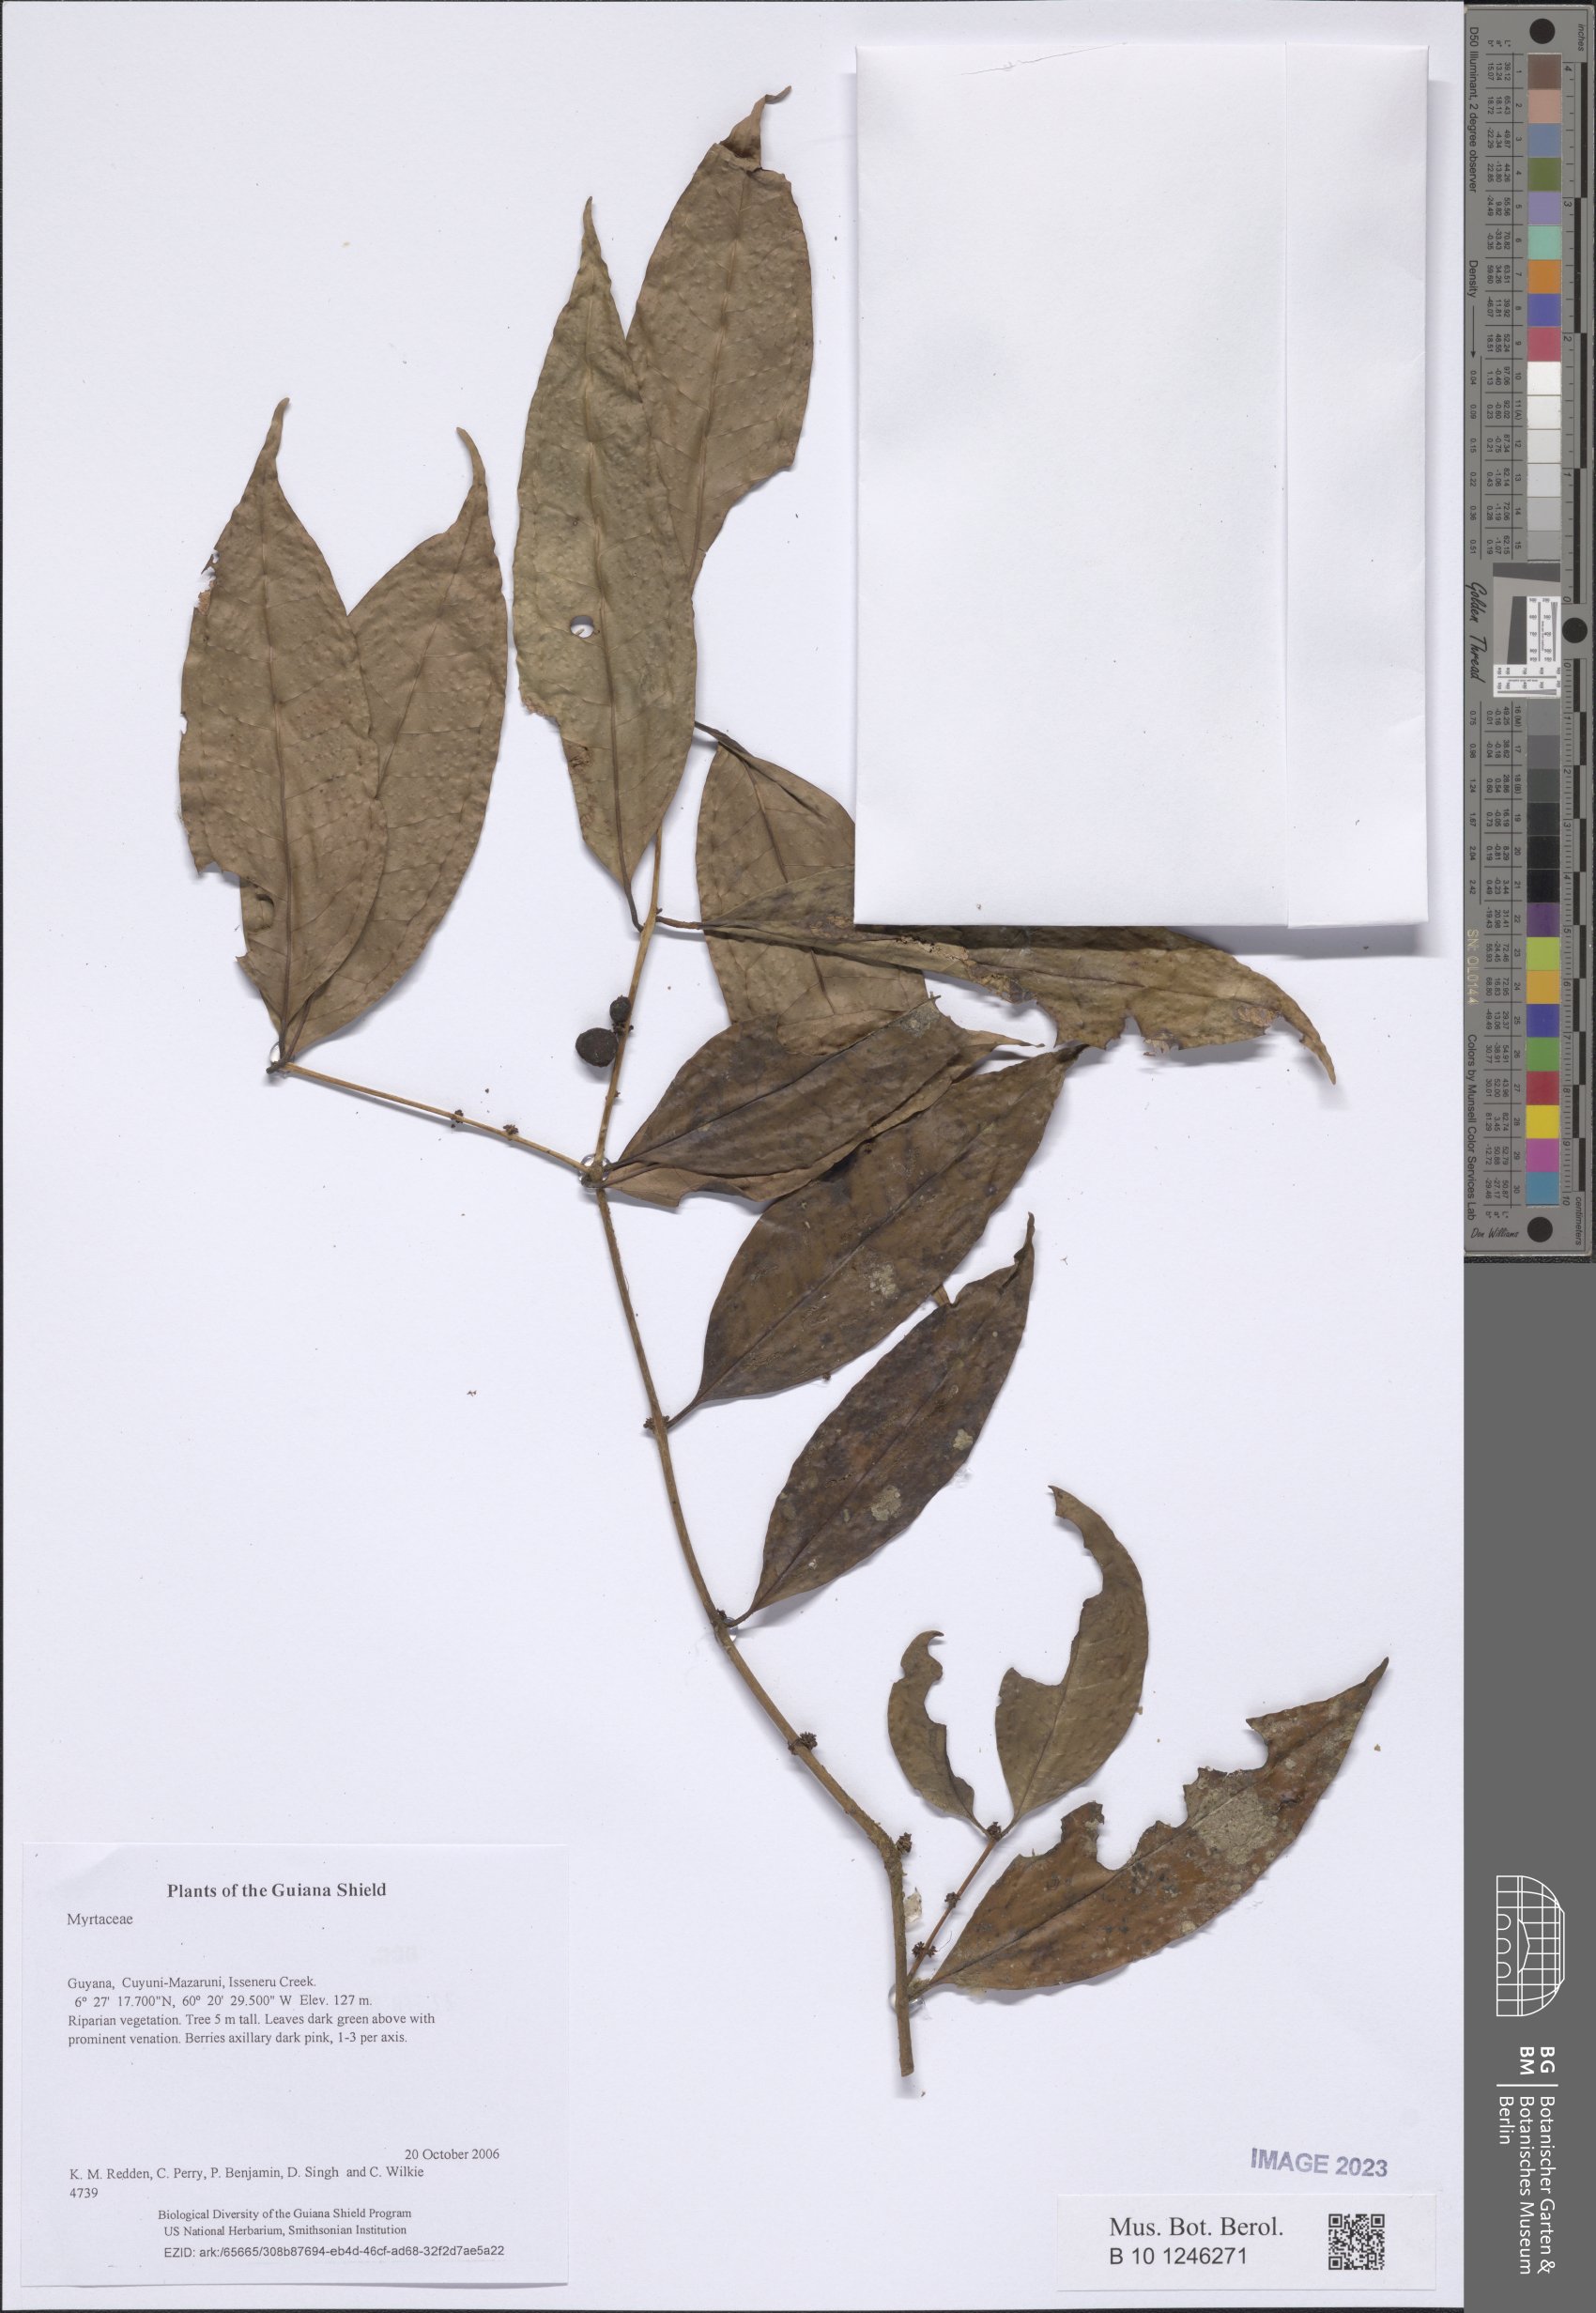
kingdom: Plantae
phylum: Tracheophyta
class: Magnoliopsida
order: Myrtales
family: Myrtaceae
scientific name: Myrtaceae
